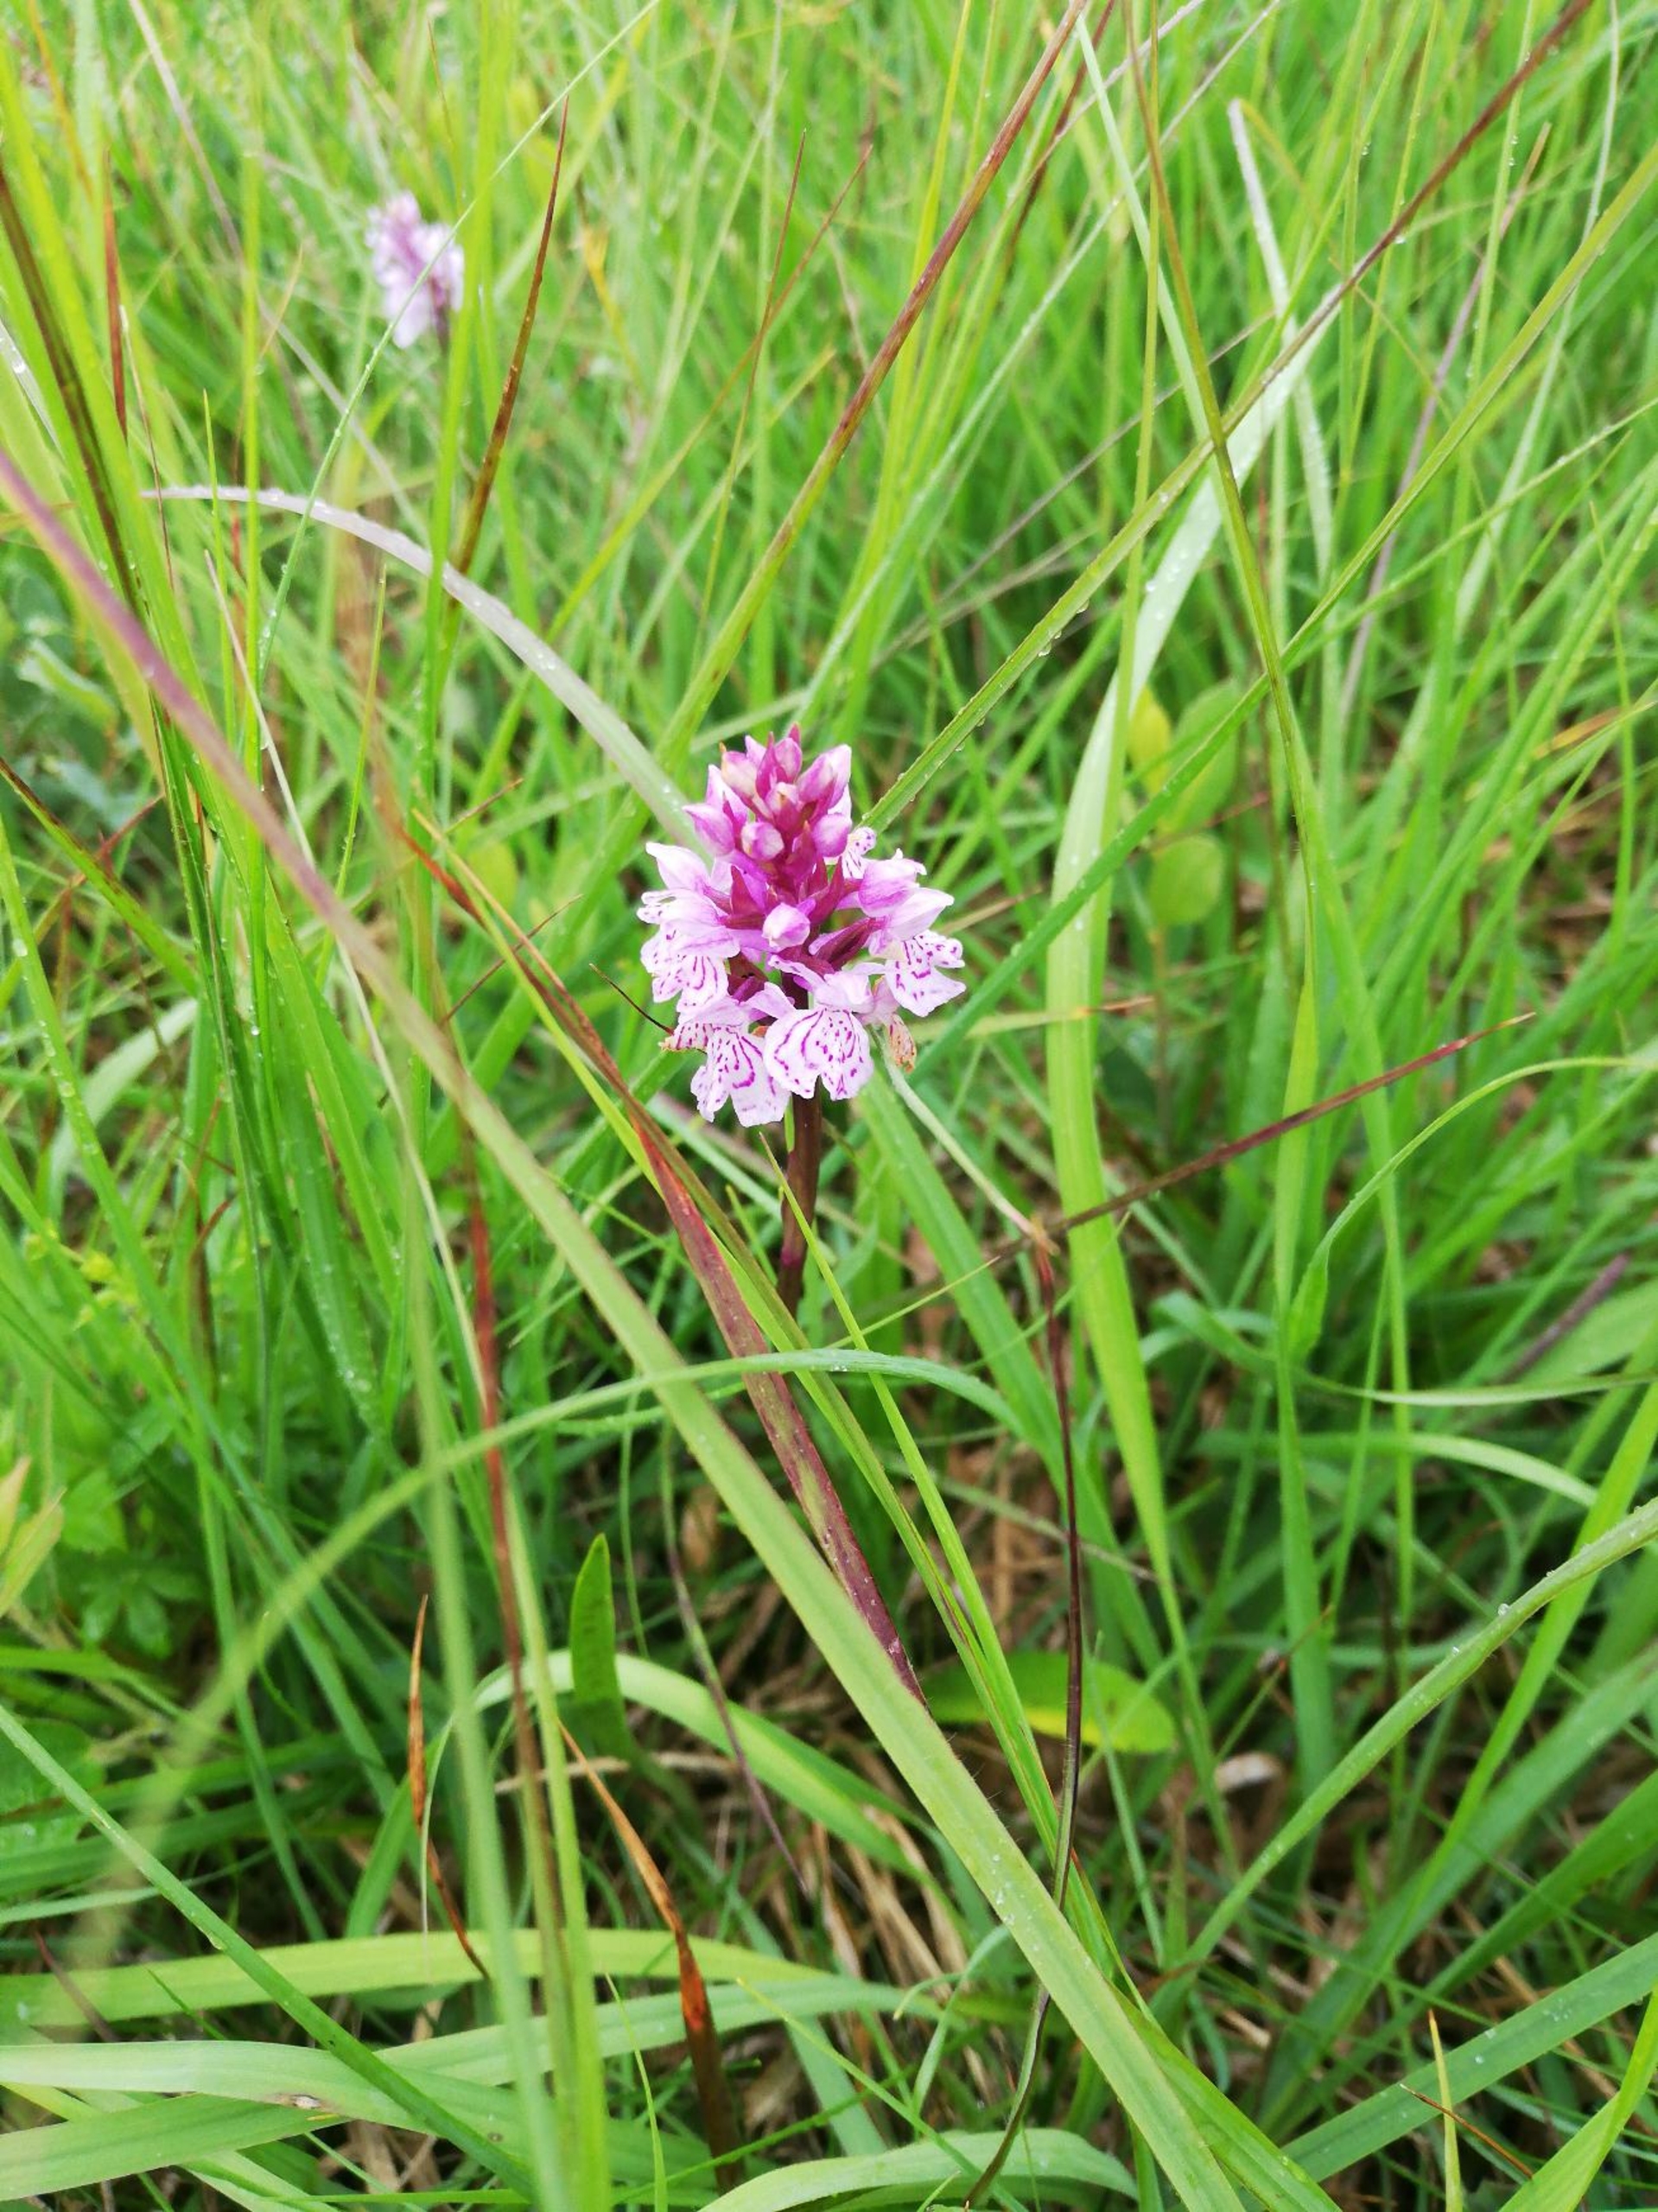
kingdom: Plantae
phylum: Tracheophyta
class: Liliopsida
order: Asparagales
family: Orchidaceae
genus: Dactylorhiza
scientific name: Dactylorhiza maculata
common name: Plettet gøgeurt
